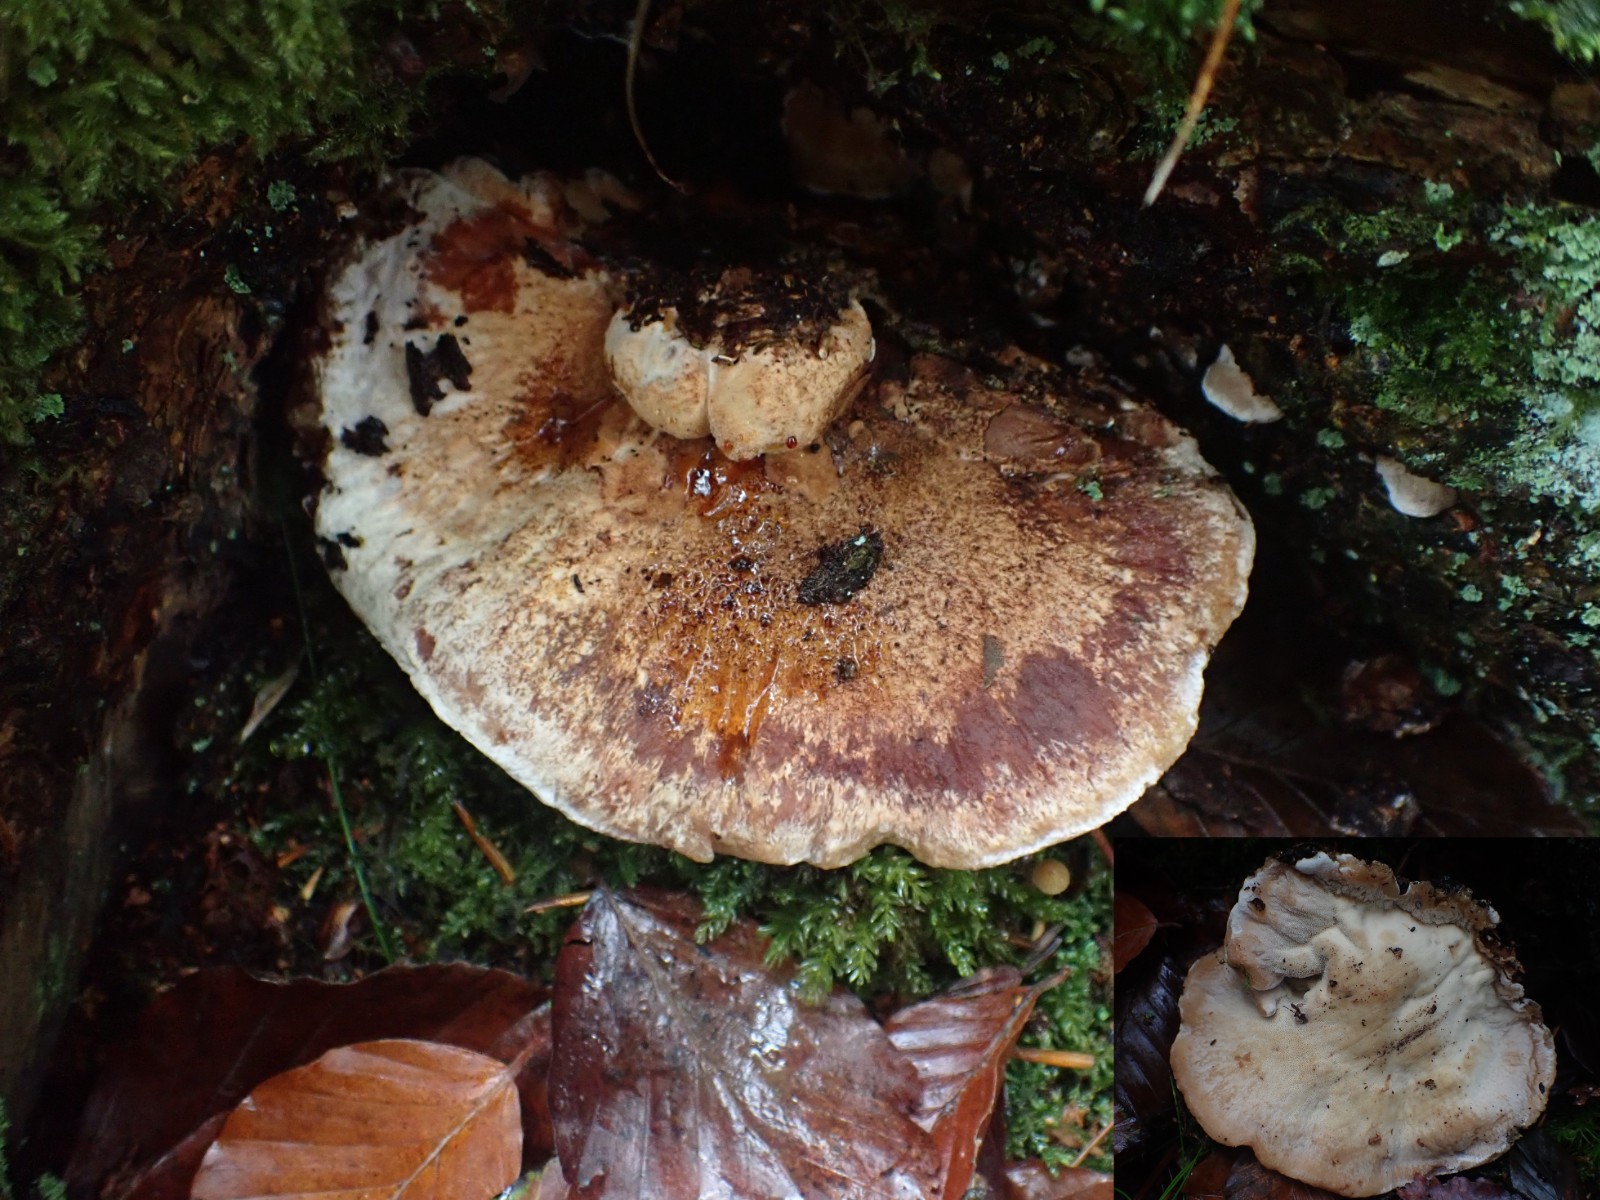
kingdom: Fungi
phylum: Basidiomycota
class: Agaricomycetes
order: Polyporales
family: Ischnodermataceae
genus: Ischnoderma
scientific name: Ischnoderma benzoinum
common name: gran-tjæreporesvamp
